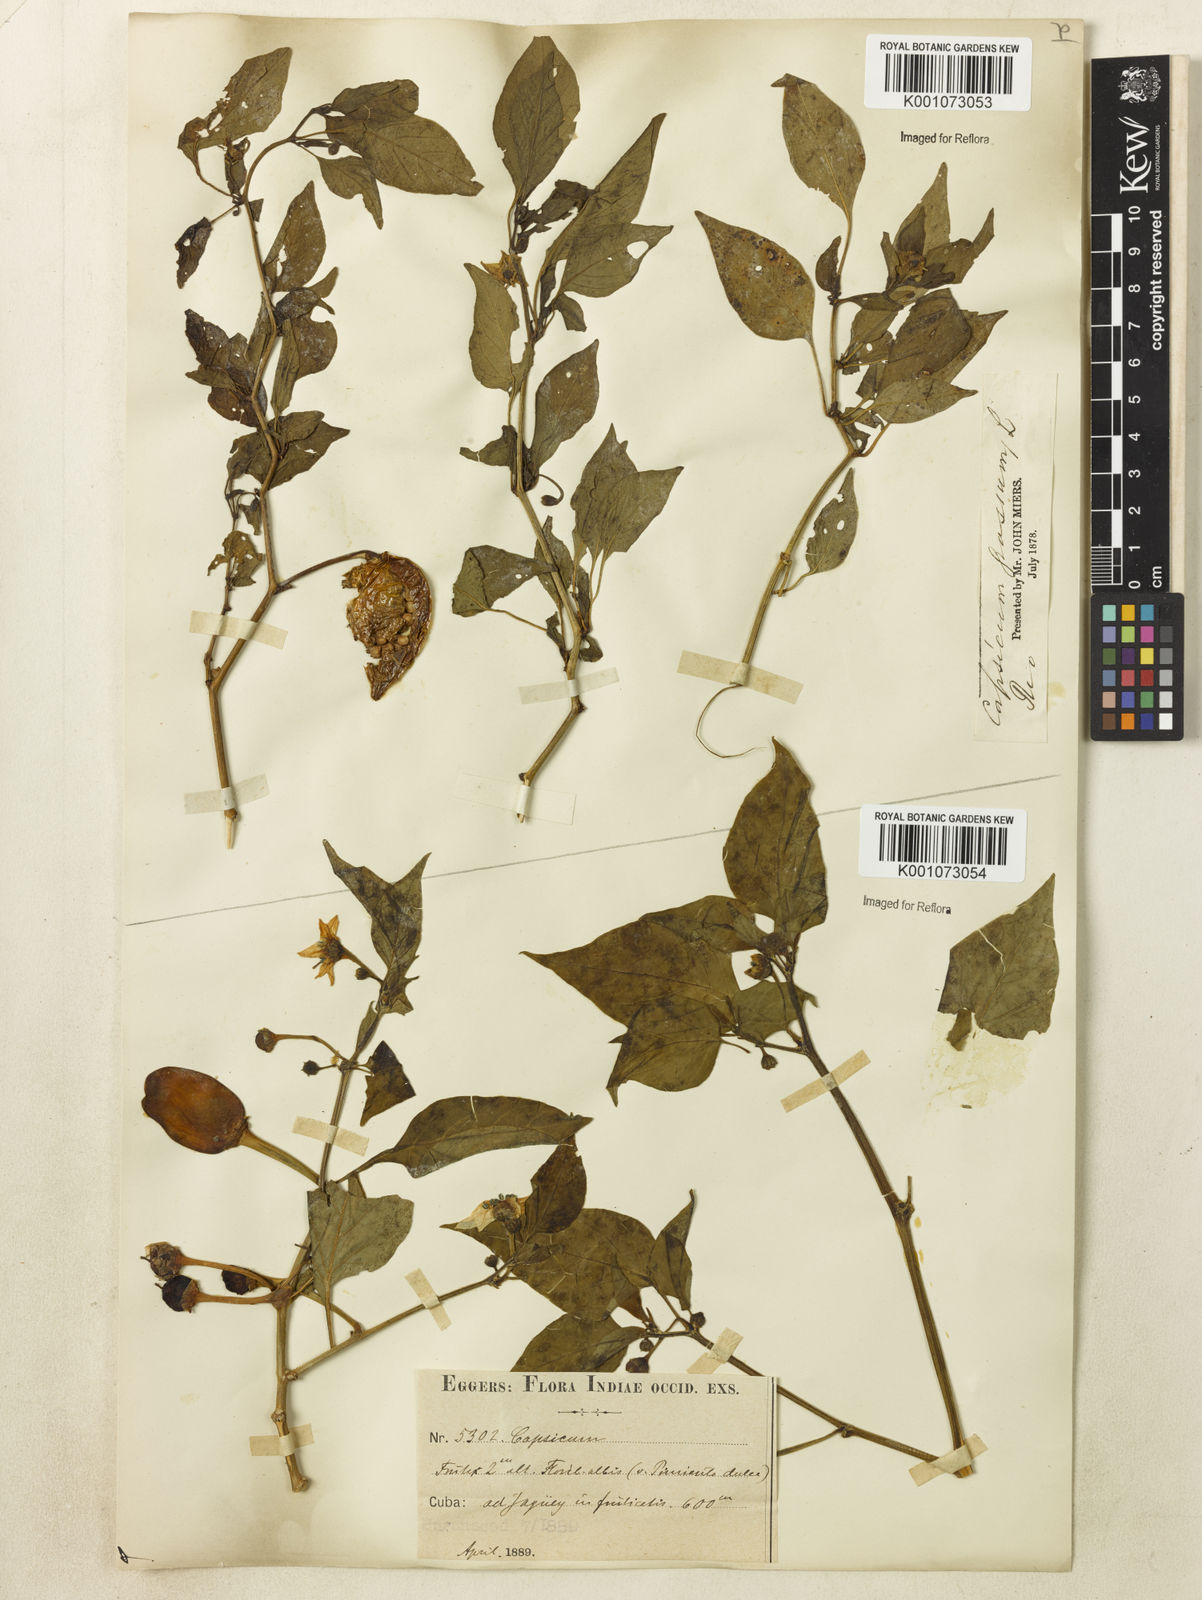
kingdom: Plantae
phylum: Tracheophyta
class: Magnoliopsida
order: Solanales
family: Solanaceae
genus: Capsicum
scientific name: Capsicum
